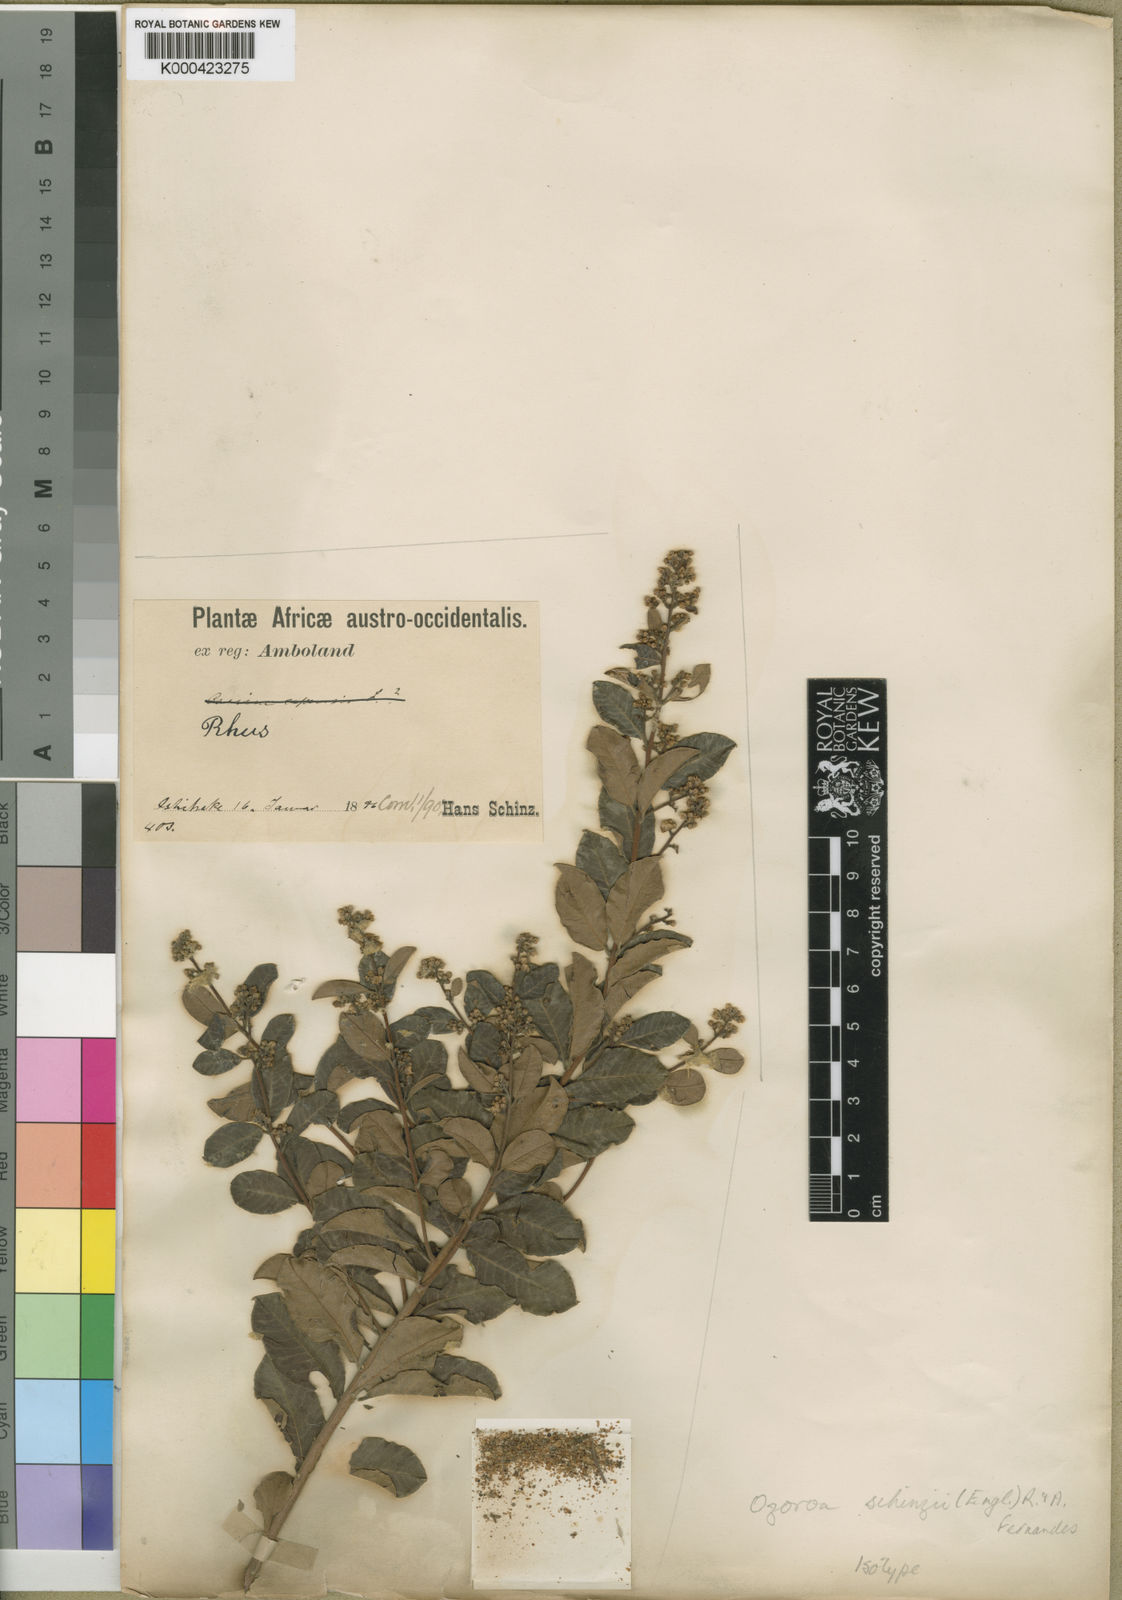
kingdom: Plantae
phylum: Tracheophyta
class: Magnoliopsida
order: Sapindales
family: Anacardiaceae
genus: Ozoroa
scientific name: Ozoroa schinzii
